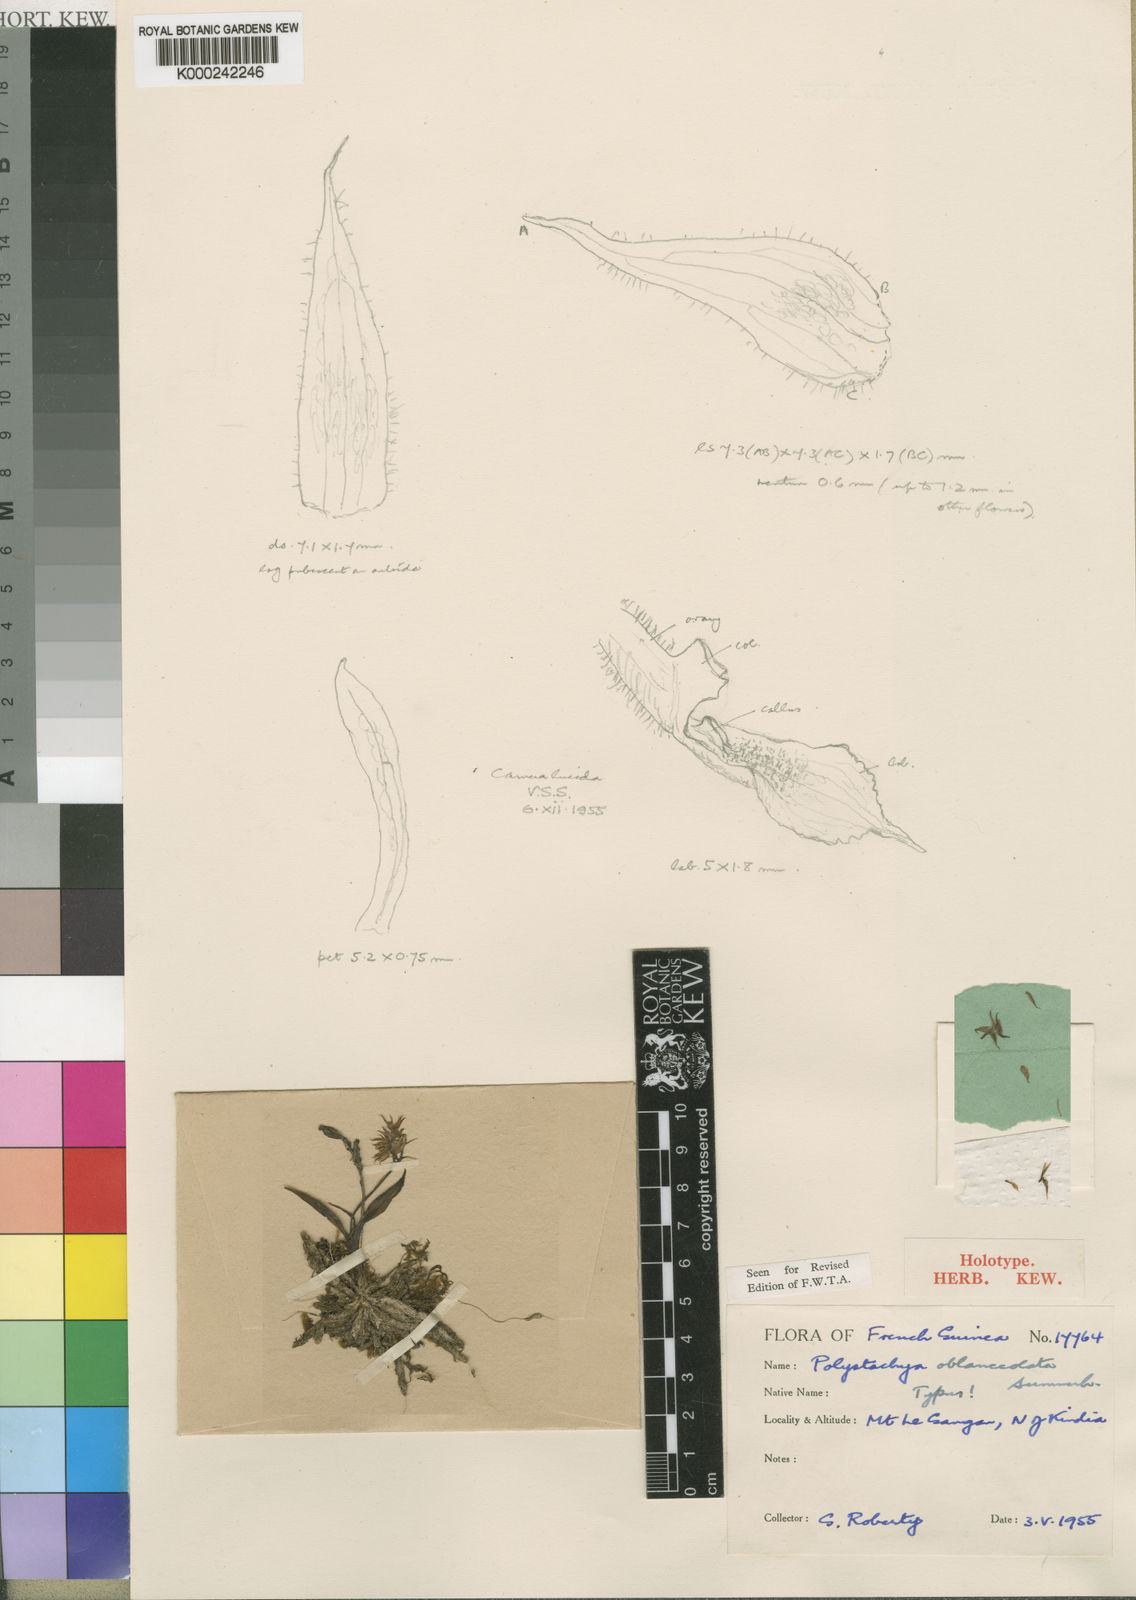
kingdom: Plantae
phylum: Tracheophyta
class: Liliopsida
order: Asparagales
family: Orchidaceae
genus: Polystachya
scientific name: Polystachya oblanceolata
